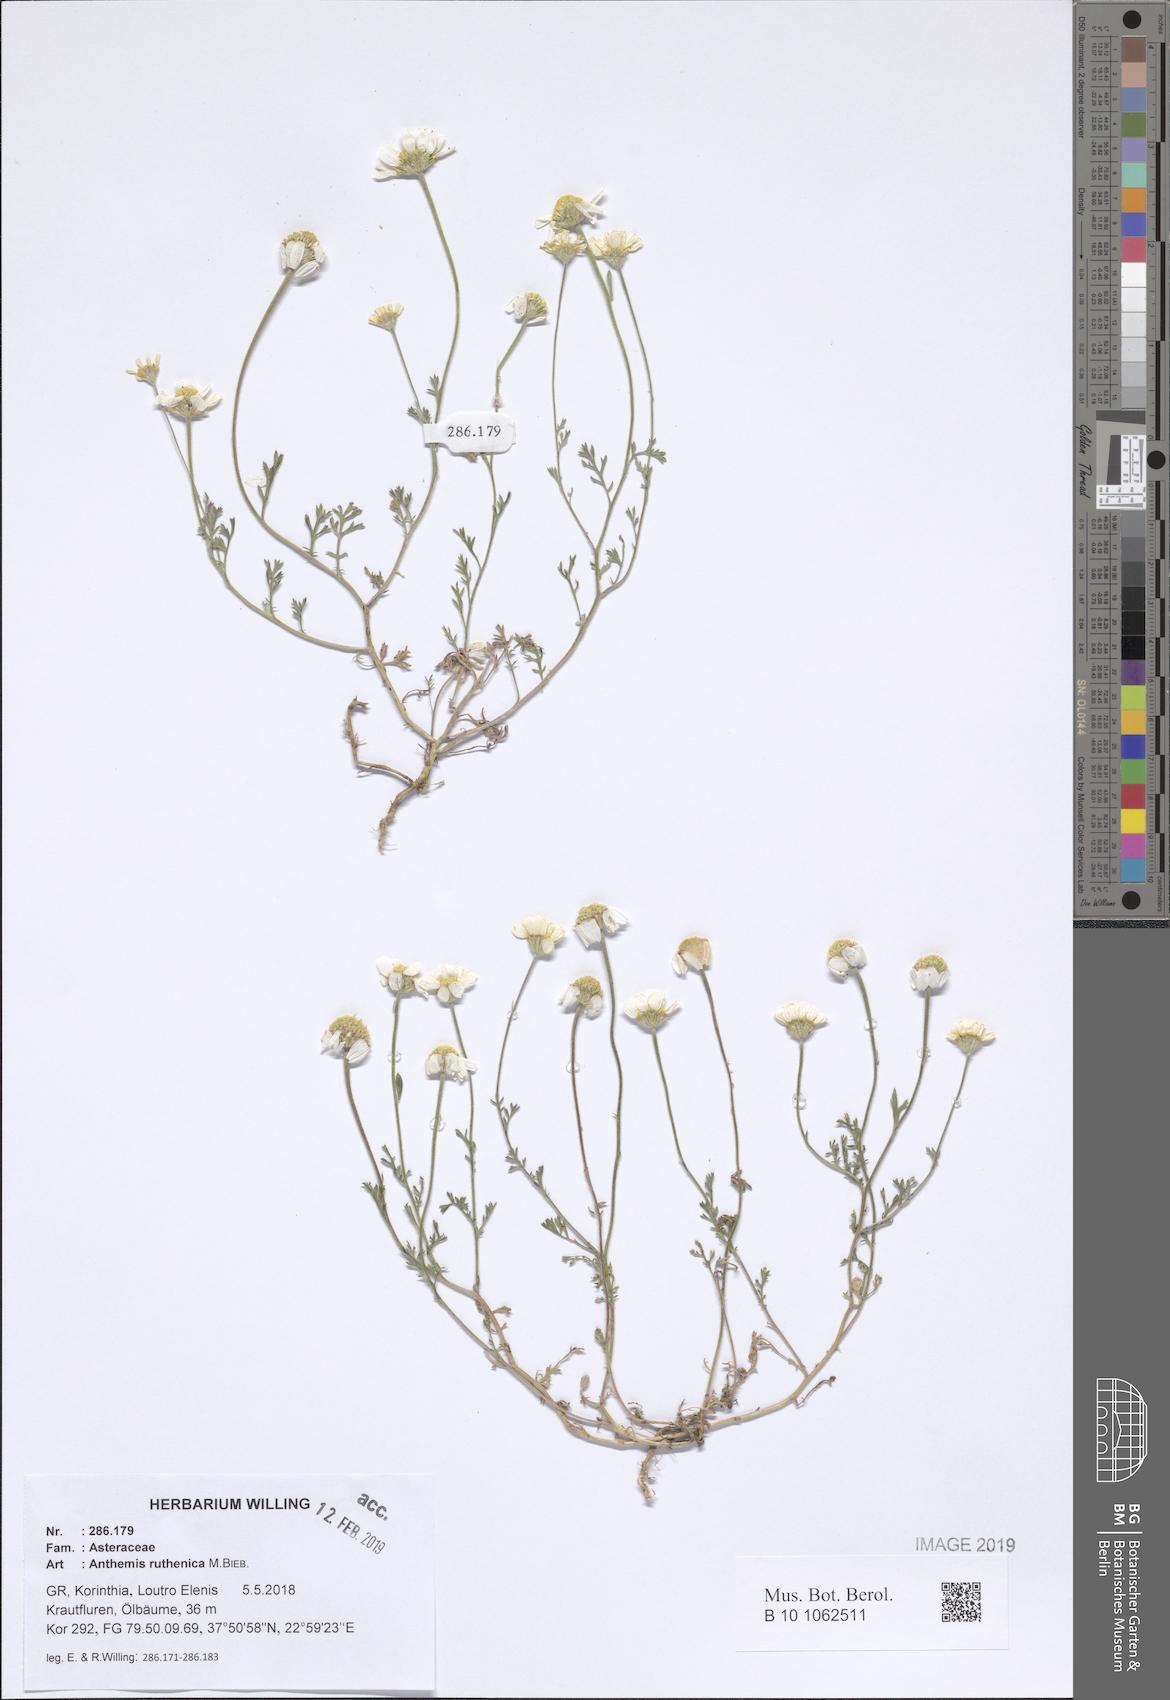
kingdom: Plantae
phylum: Tracheophyta
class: Magnoliopsida
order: Asterales
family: Asteraceae
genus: Anthemis
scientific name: Anthemis ruthenica
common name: Eastern chamomile
